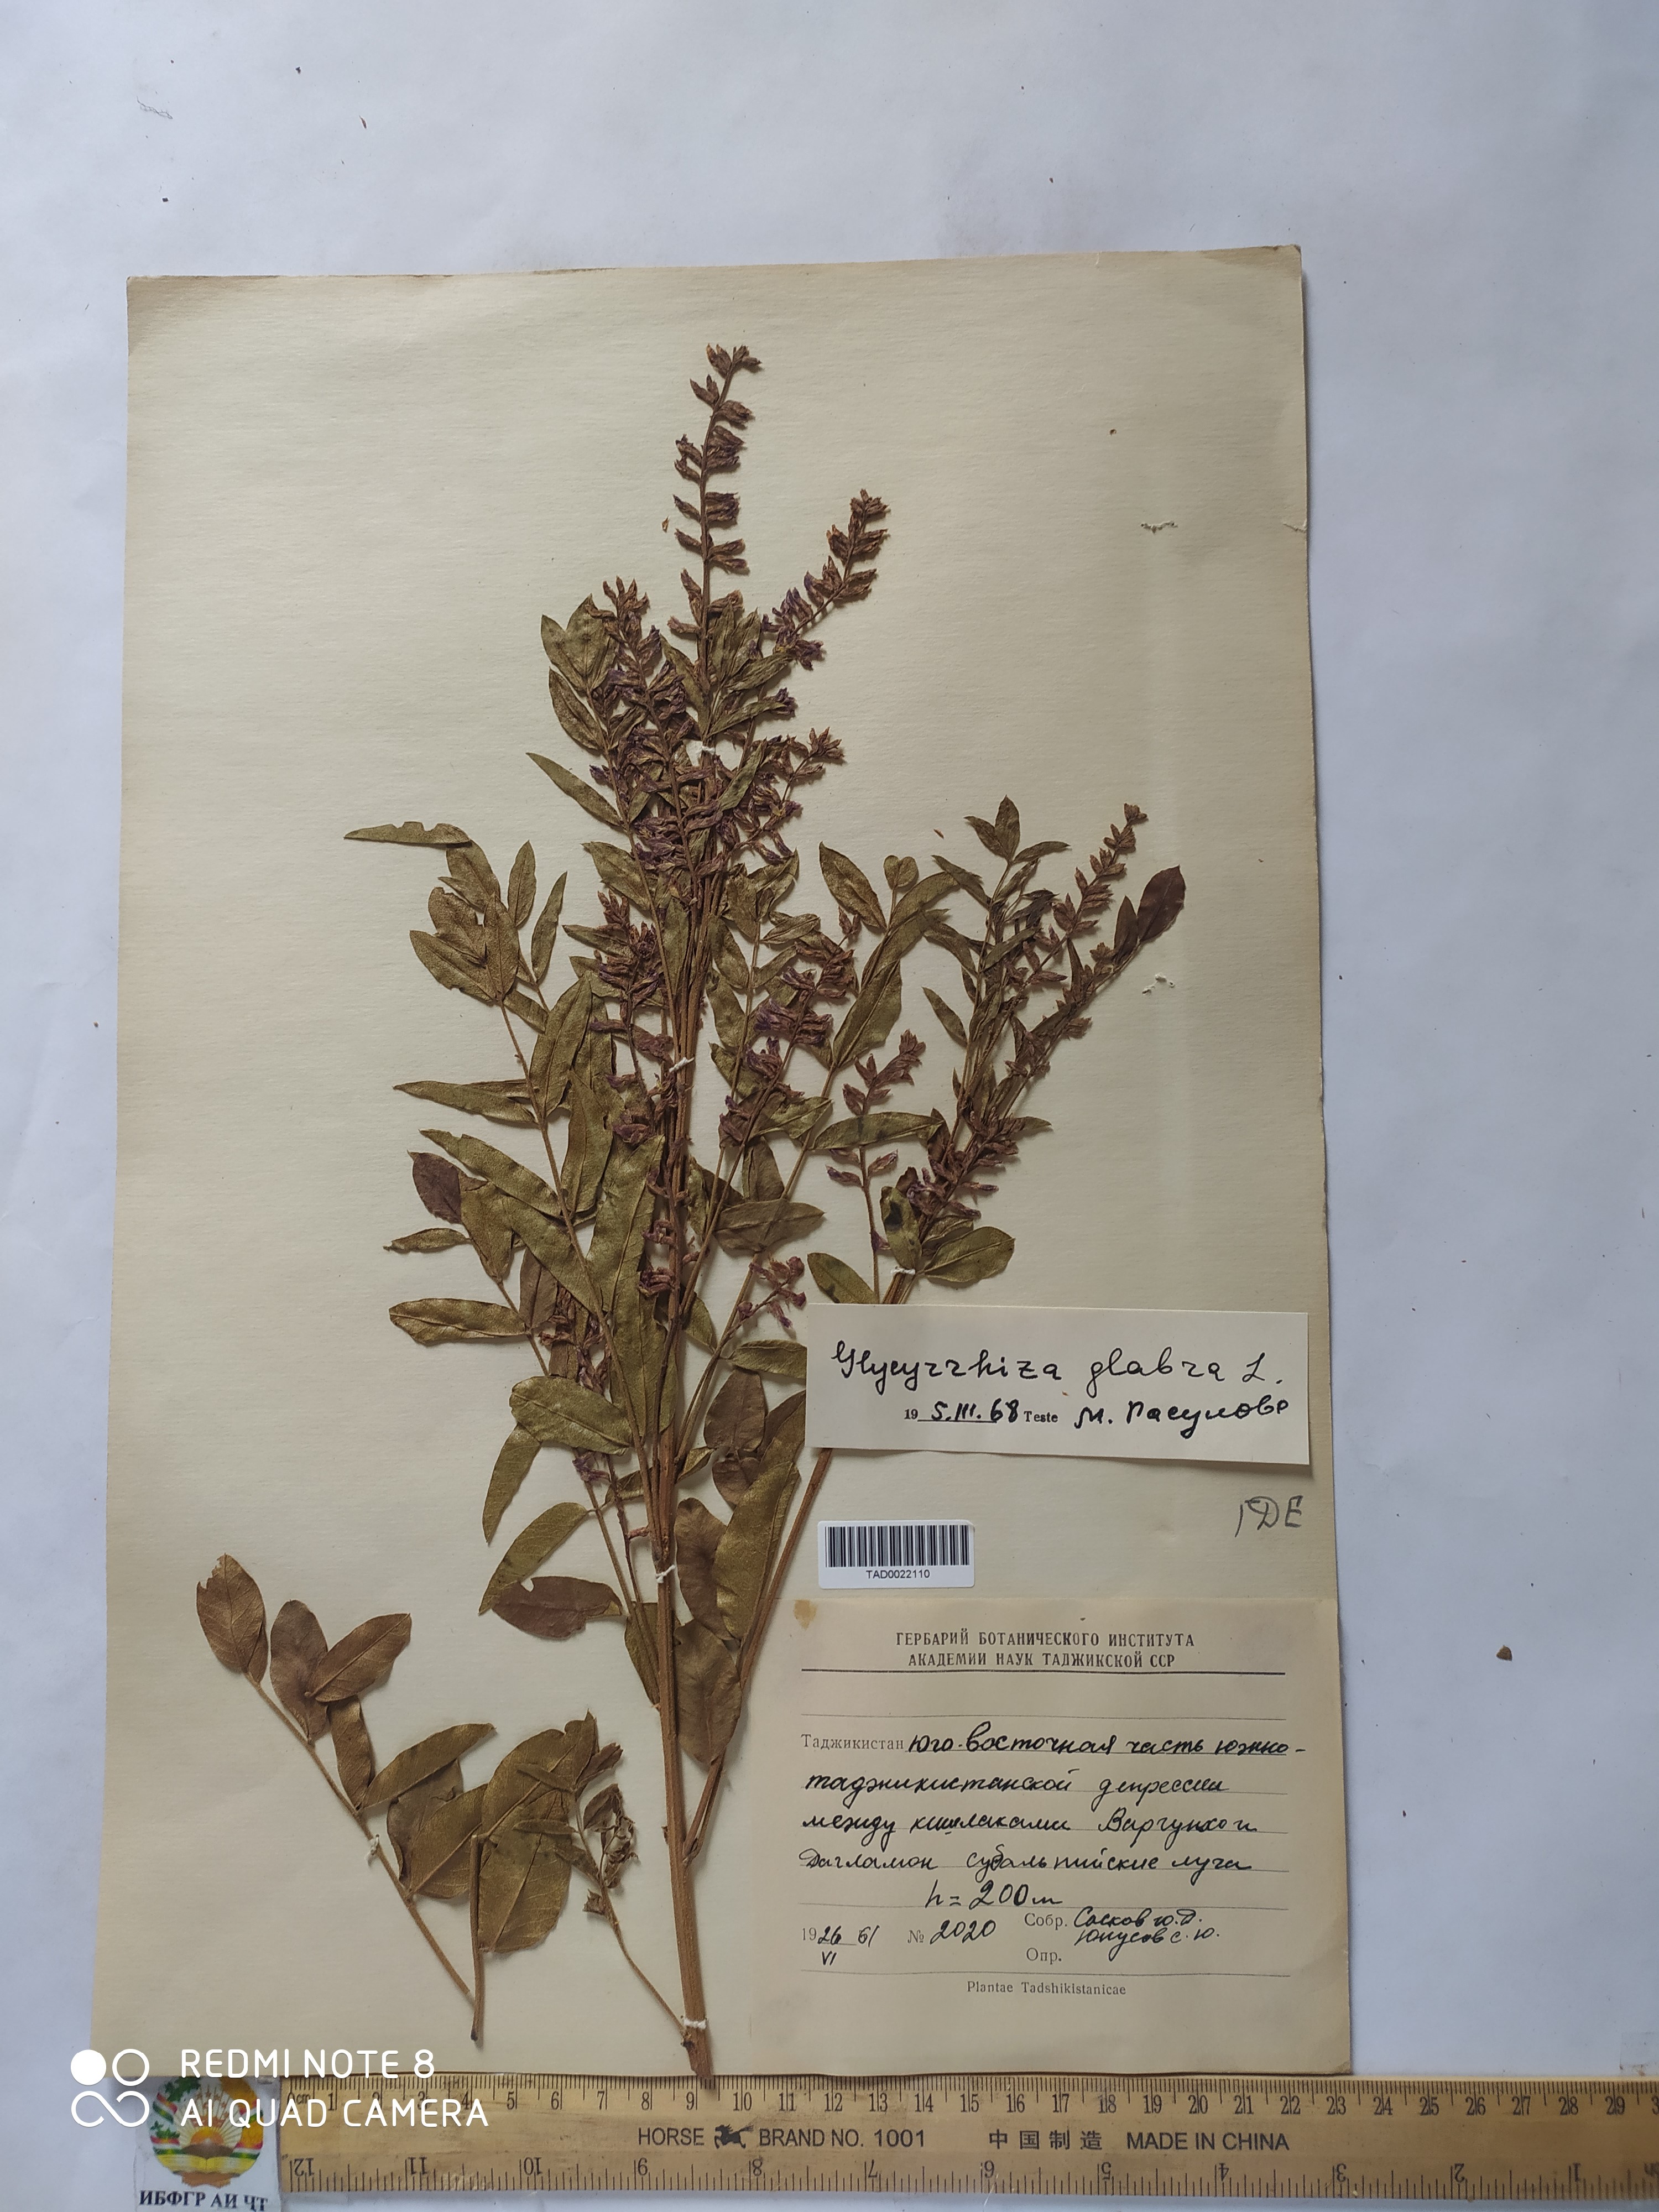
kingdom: Plantae
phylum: Tracheophyta
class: Magnoliopsida
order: Fabales
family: Fabaceae
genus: Glycyrrhiza
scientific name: Glycyrrhiza glabra
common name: Liquorice
